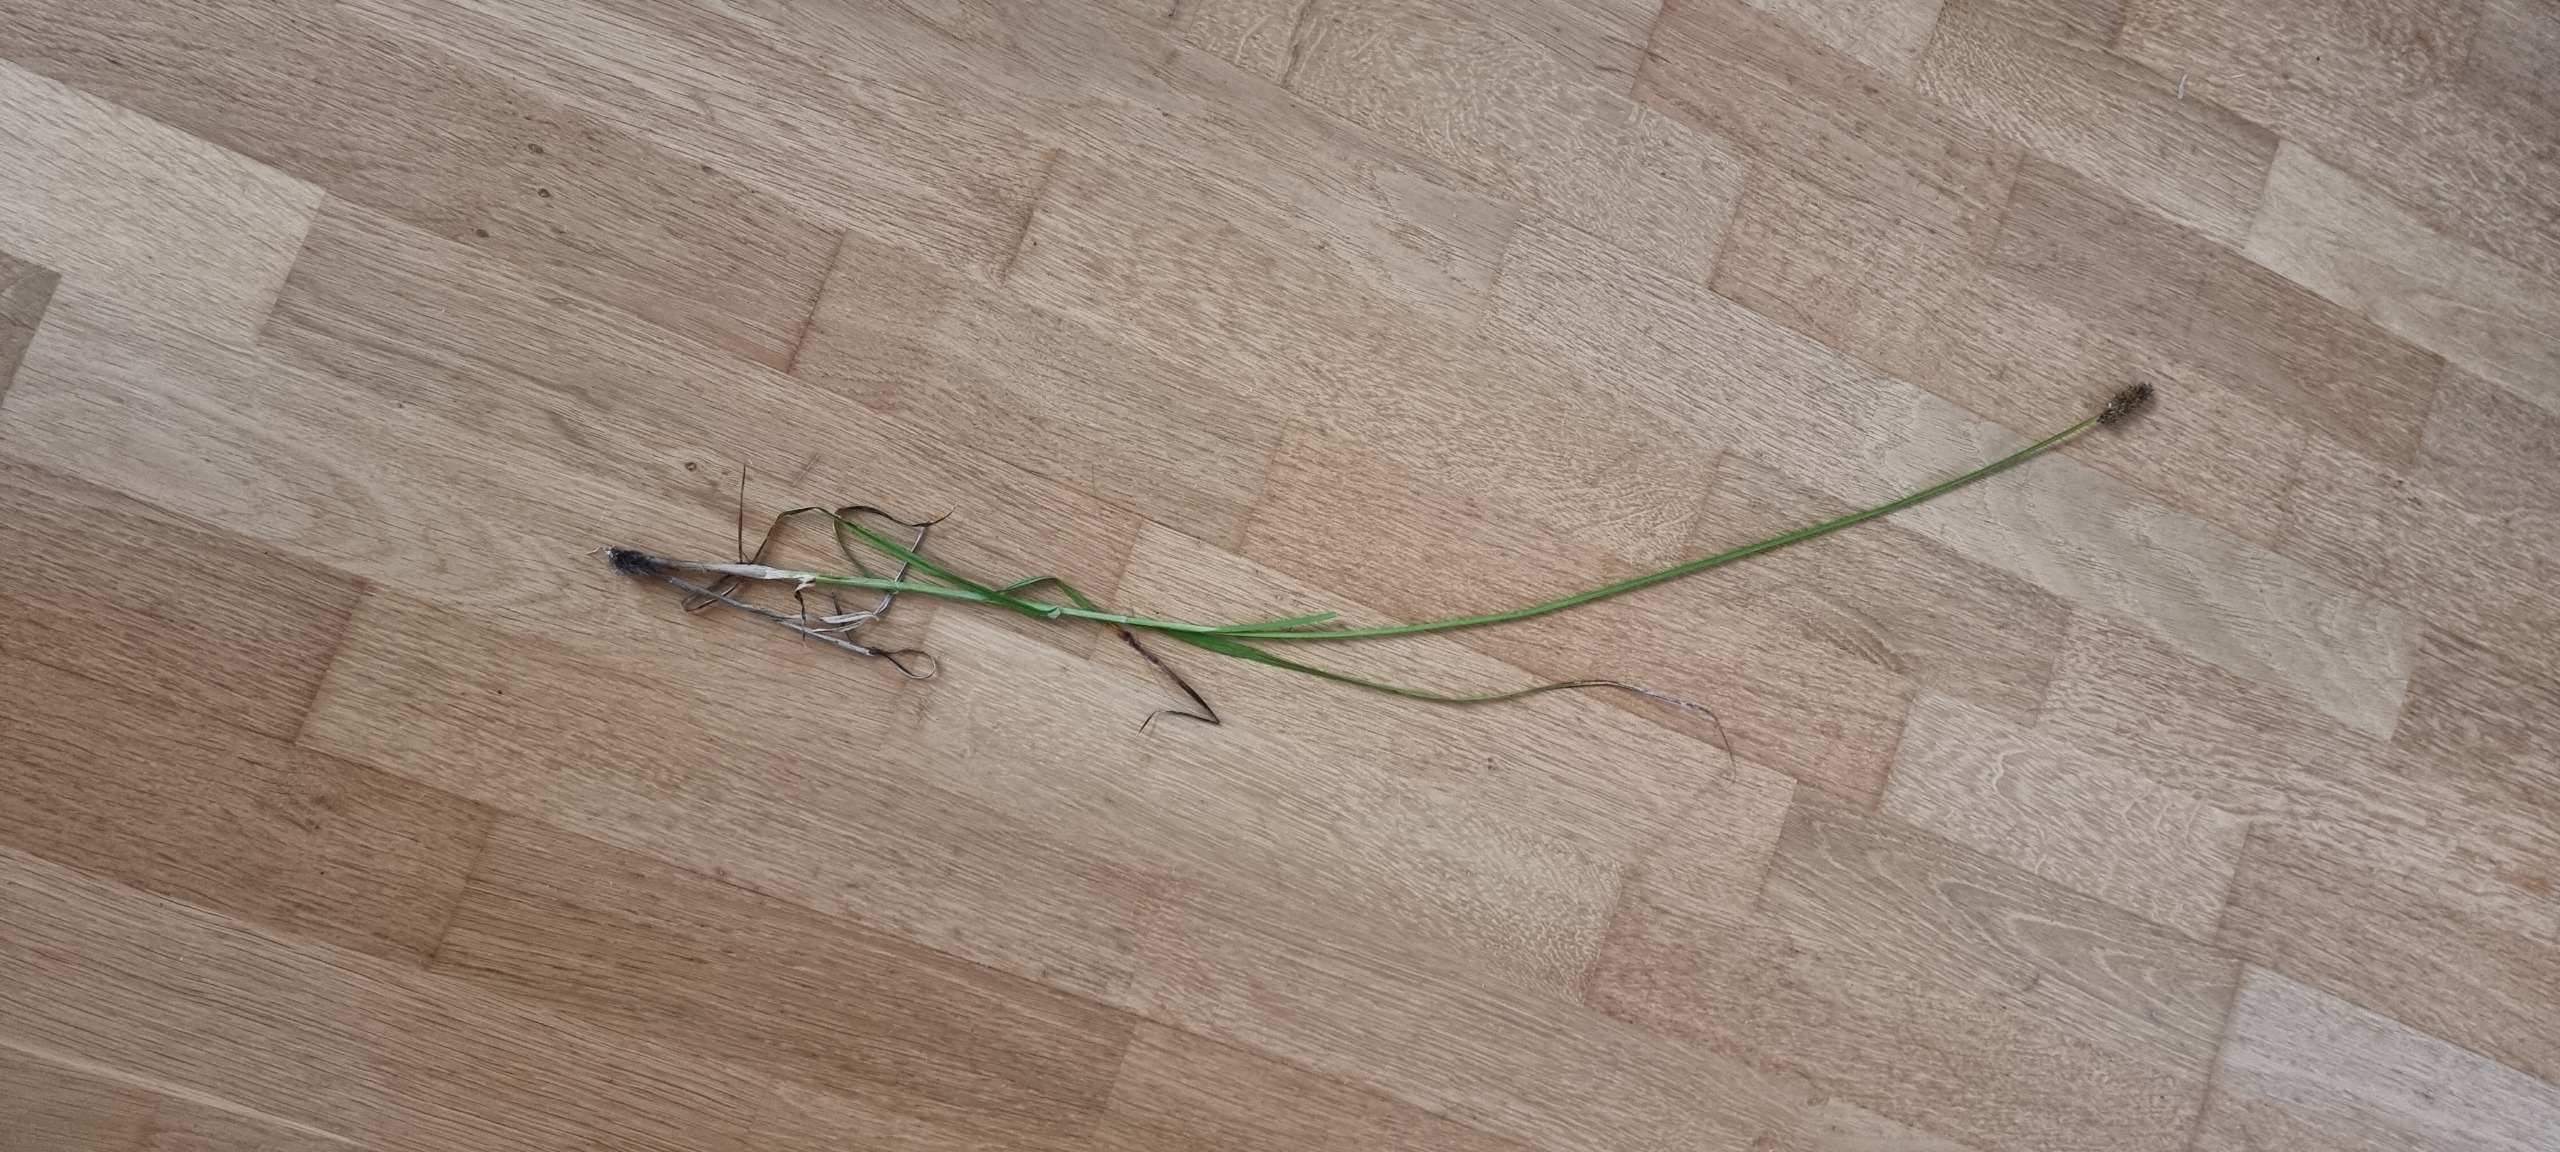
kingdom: Plantae
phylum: Tracheophyta
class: Liliopsida
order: Poales
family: Cyperaceae
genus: Carex
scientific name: Carex otrubae
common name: Sylt-star
